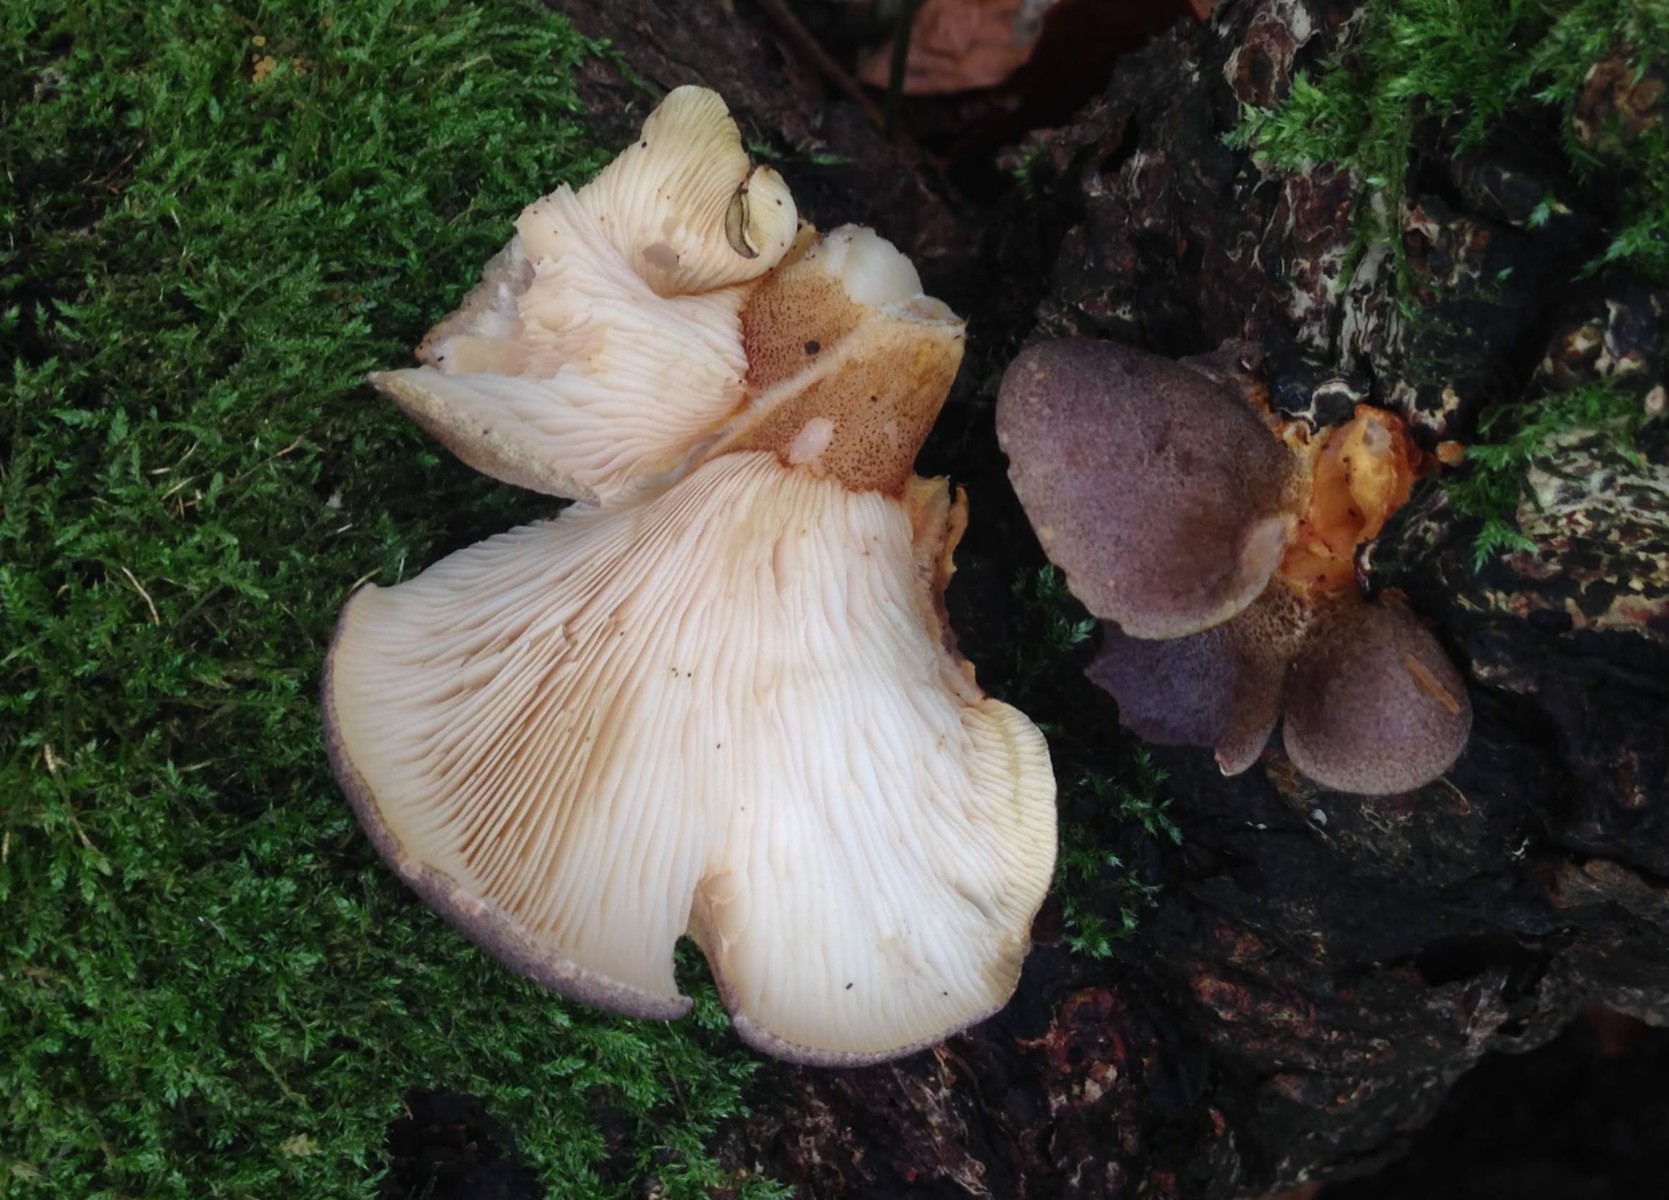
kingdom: Fungi
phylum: Basidiomycota
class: Agaricomycetes
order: Agaricales
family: Sarcomyxaceae
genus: Sarcomyxa
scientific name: Sarcomyxa serotina
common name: gummihat
